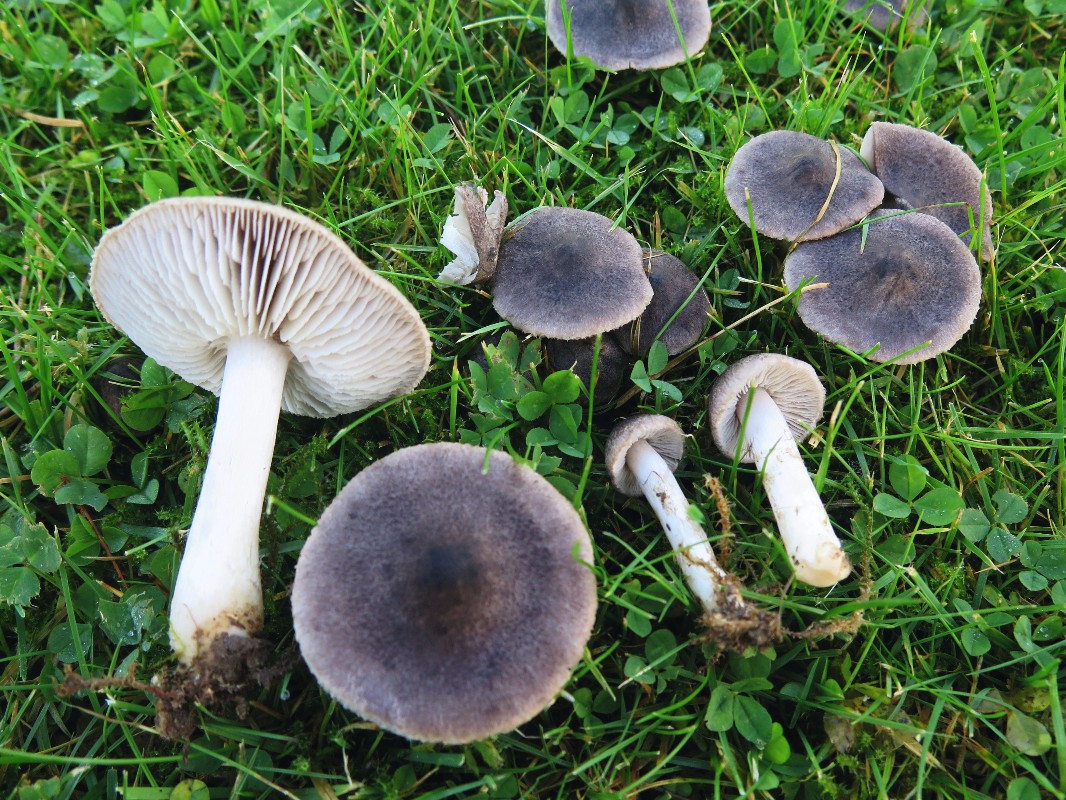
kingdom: Fungi
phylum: Basidiomycota
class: Agaricomycetes
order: Agaricales
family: Tricholomataceae
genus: Tricholoma
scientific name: Tricholoma terreum
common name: jordfarvet ridderhat
